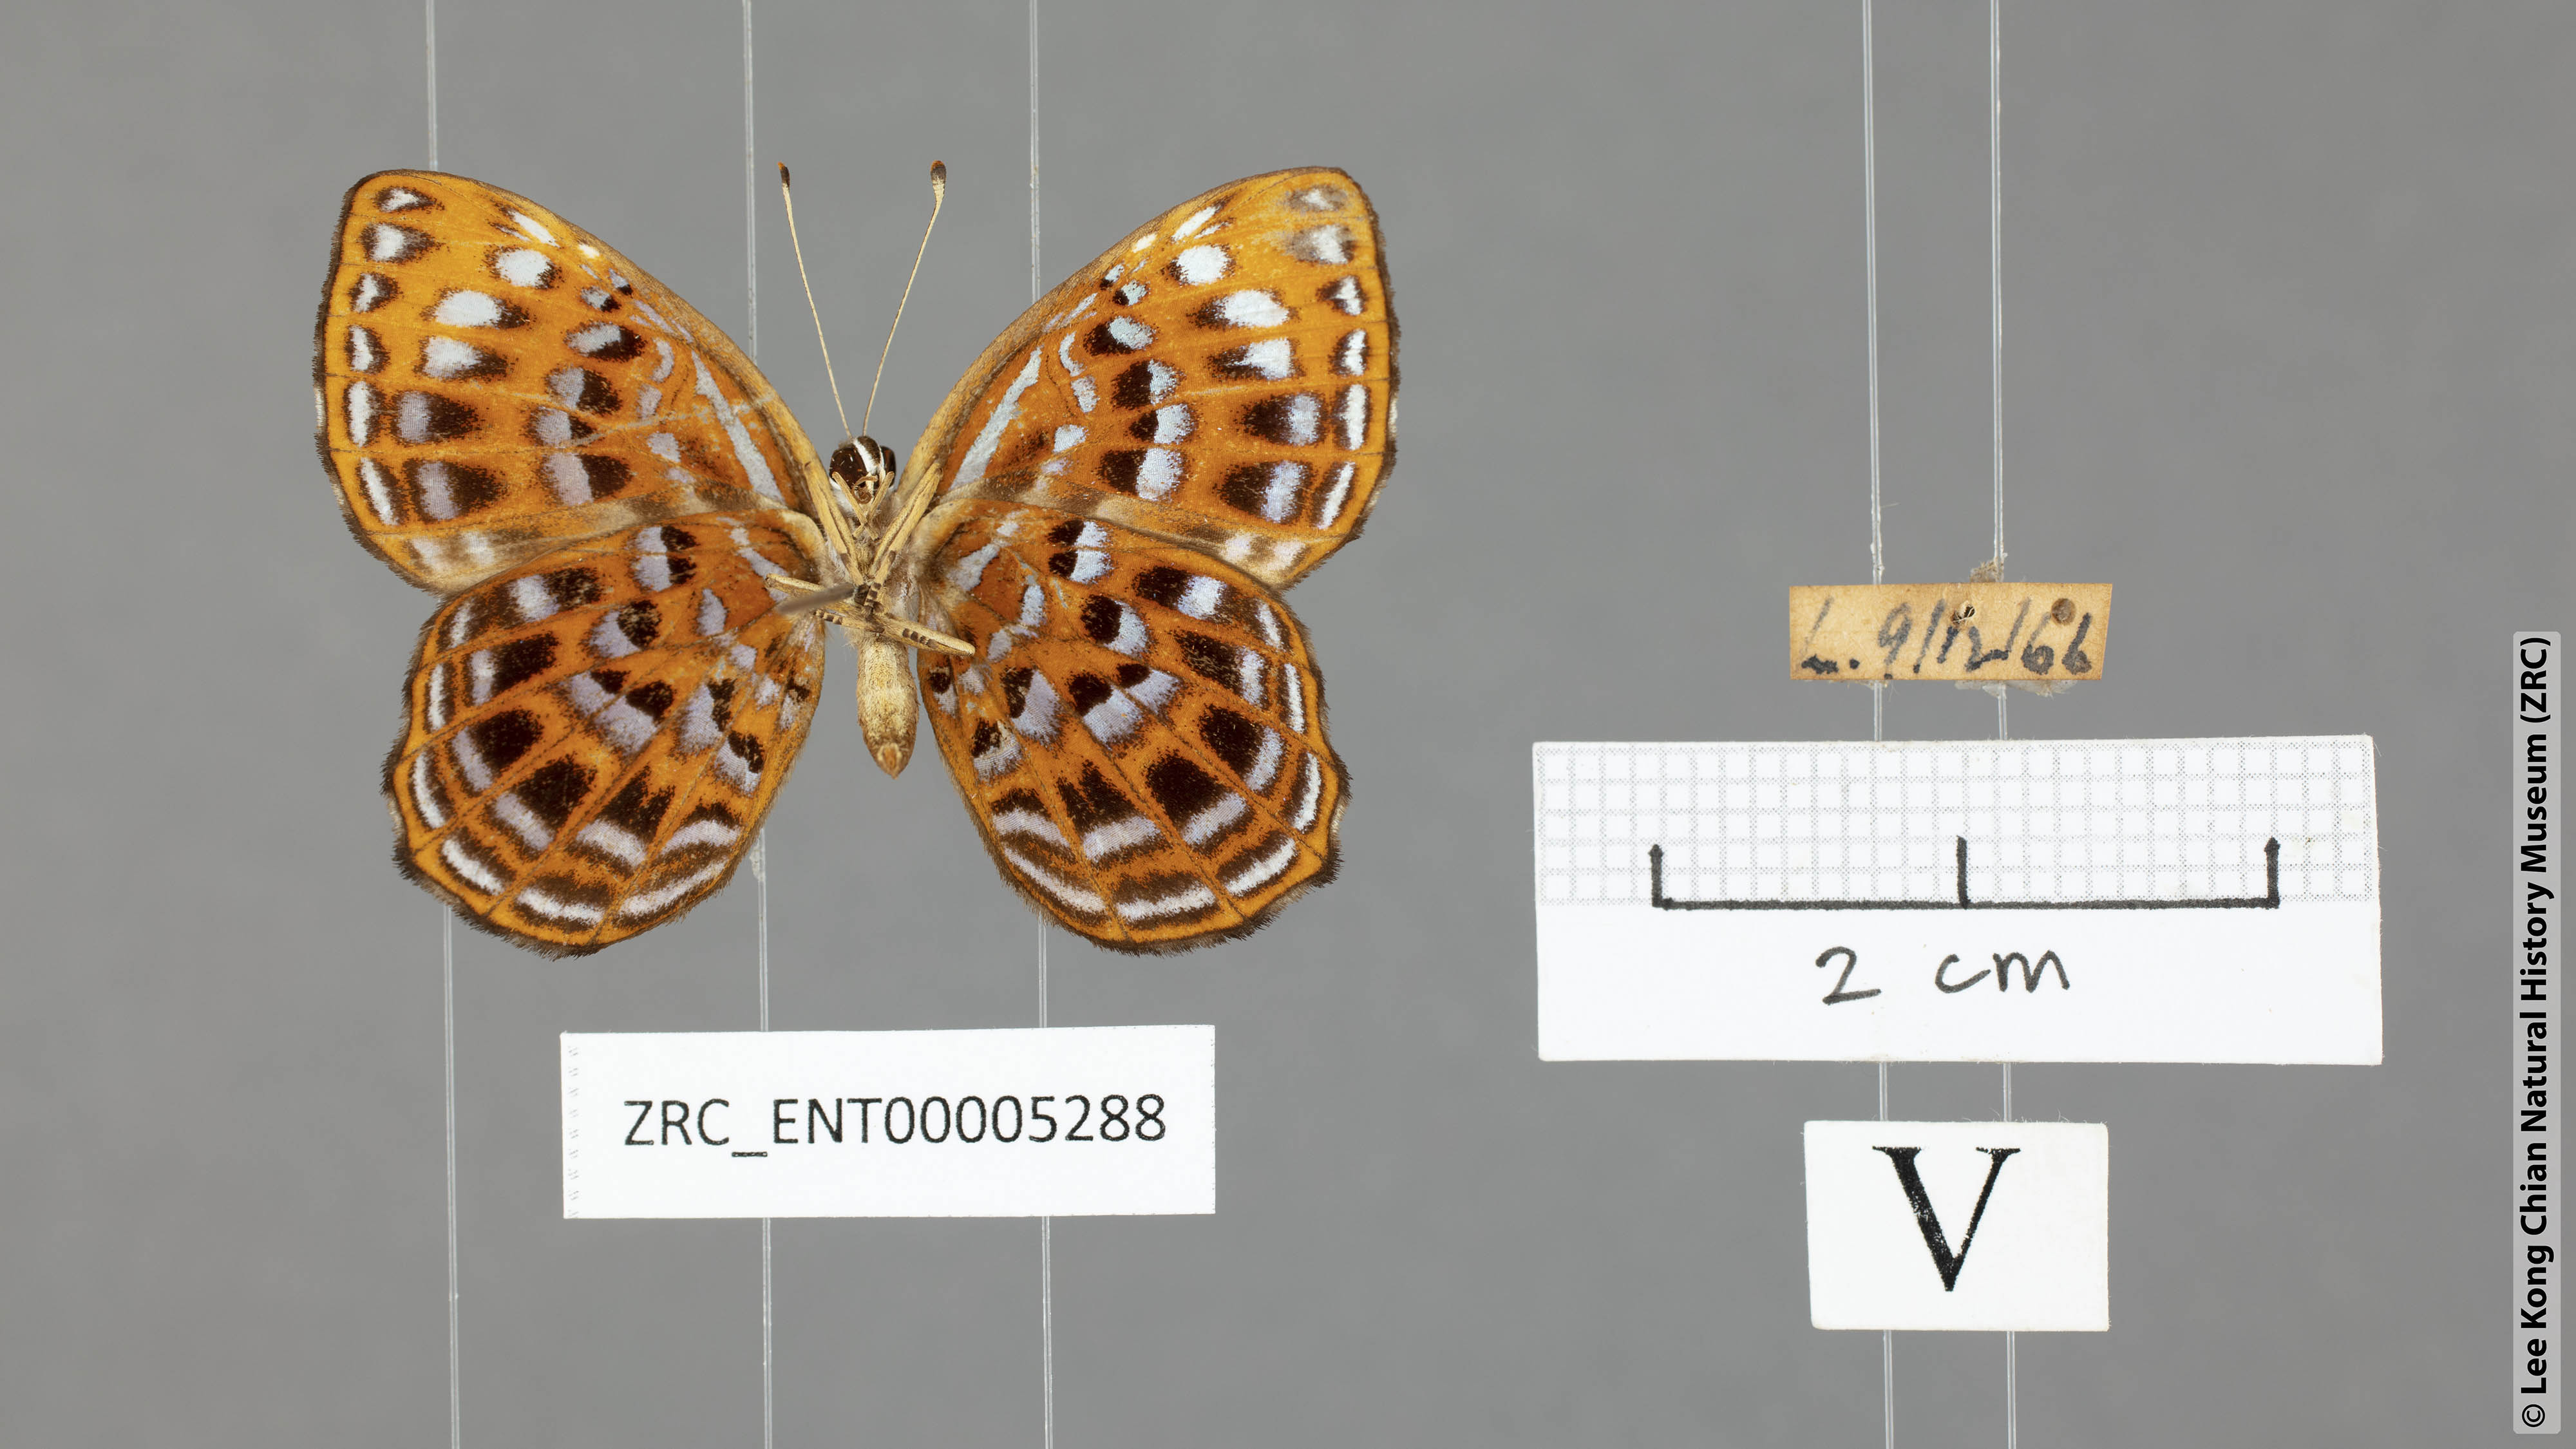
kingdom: Animalia
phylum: Arthropoda
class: Insecta
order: Lepidoptera
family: Riodinidae
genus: Laxita
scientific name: Laxita thuisto
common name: Lesser harlequin
